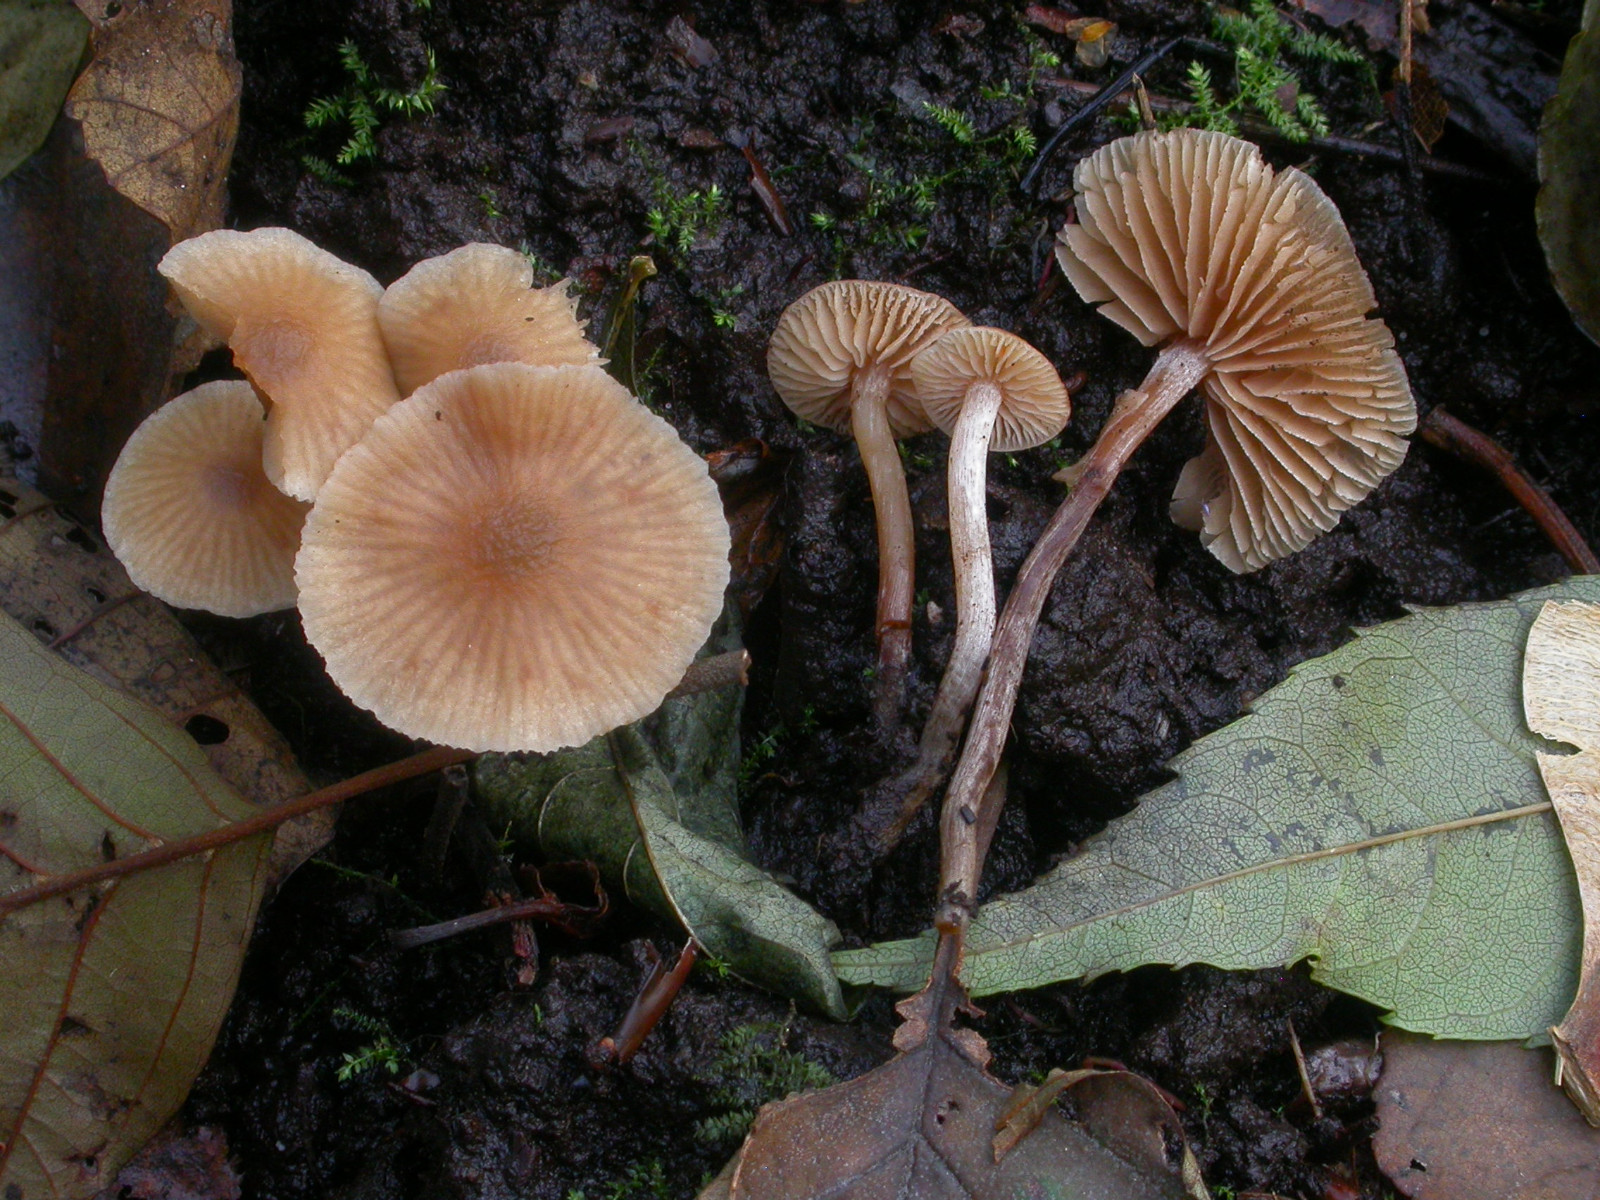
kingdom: Fungi
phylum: Basidiomycota
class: Agaricomycetes
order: Agaricales
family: Hymenogastraceae
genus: Naucoria
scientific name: Naucoria celluloderma
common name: enlig knaphat
